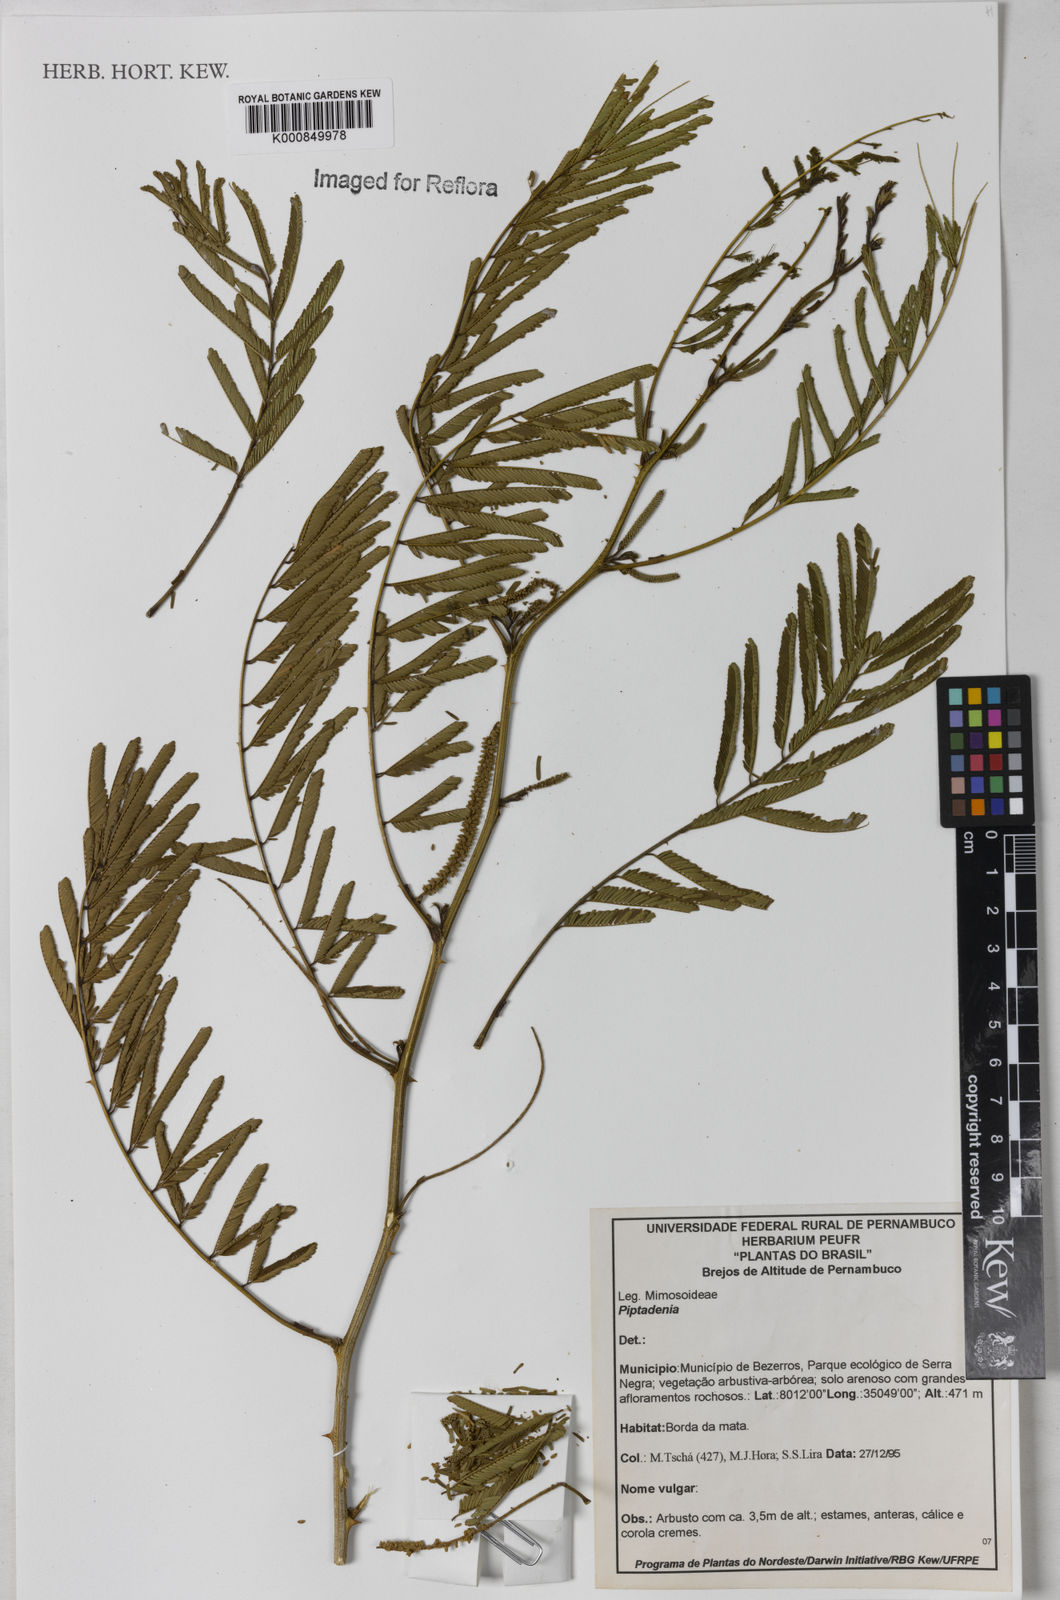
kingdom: Plantae
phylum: Tracheophyta
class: Magnoliopsida
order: Fabales
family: Fabaceae
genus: Piptadenia
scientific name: Piptadenia
